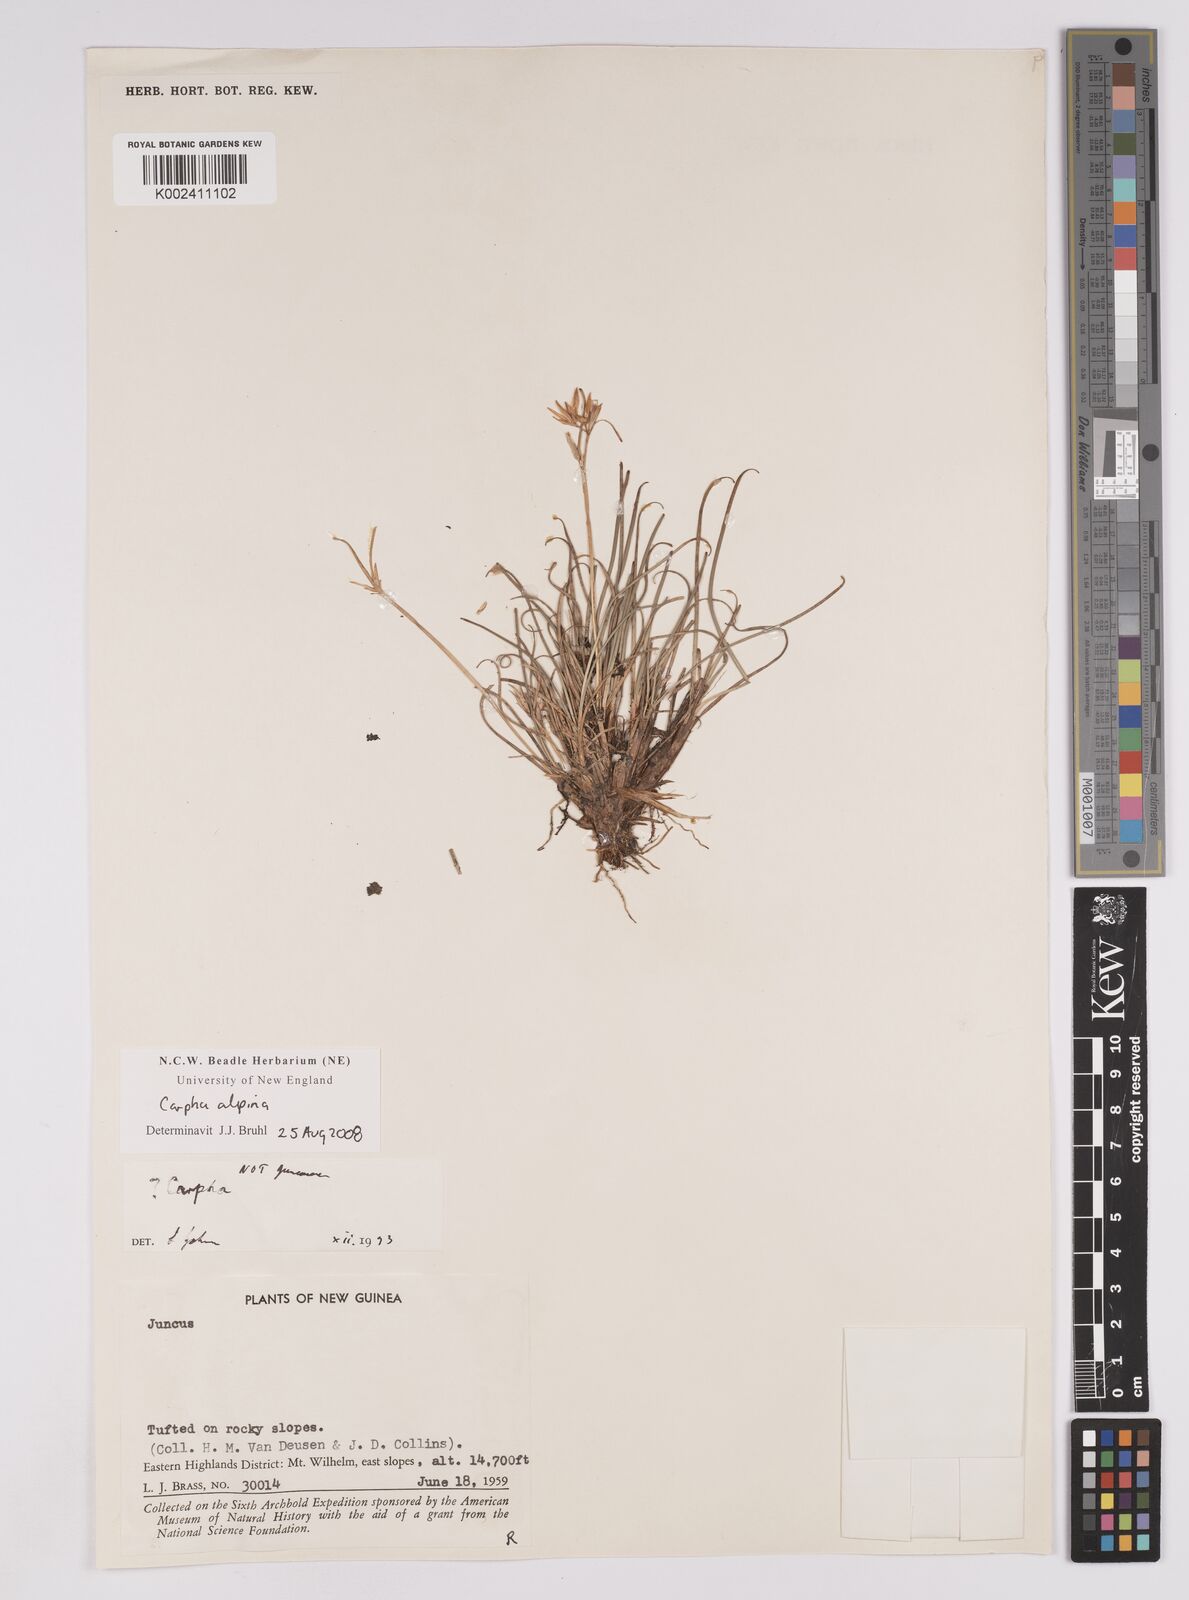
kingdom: Plantae
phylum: Tracheophyta
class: Liliopsida
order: Poales
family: Cyperaceae
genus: Carpha
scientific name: Carpha alpina
